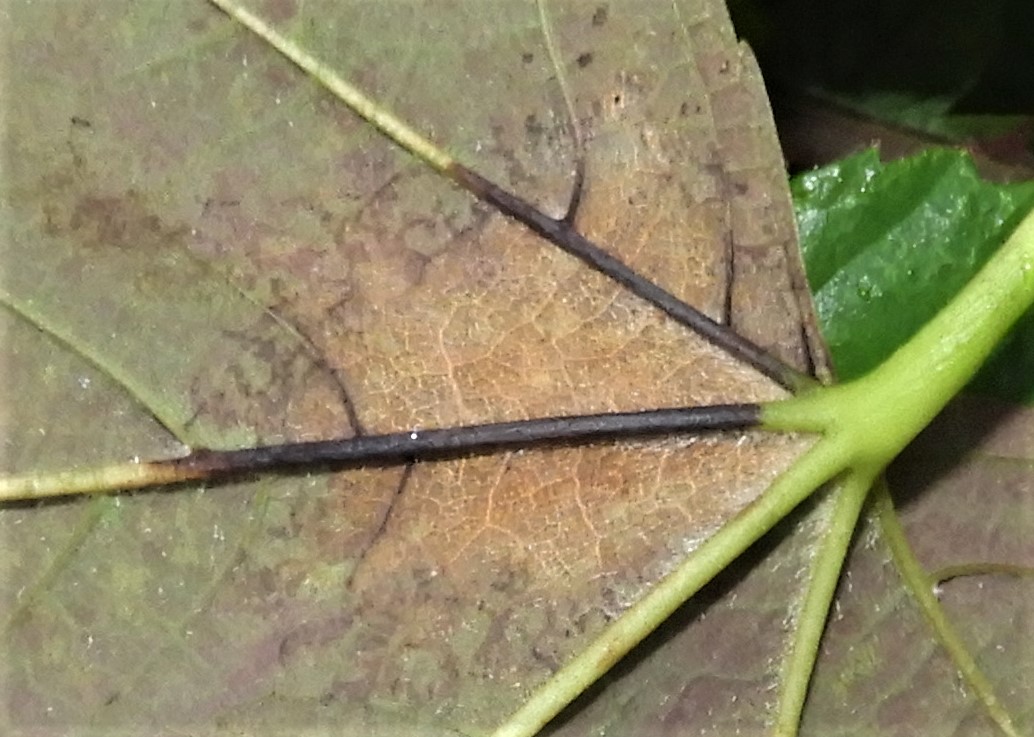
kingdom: Fungi
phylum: Ascomycota
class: Sordariomycetes
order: Diaporthales
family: Gnomoniaceae
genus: Pleuroceras
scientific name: Pleuroceras pseudoplatani
